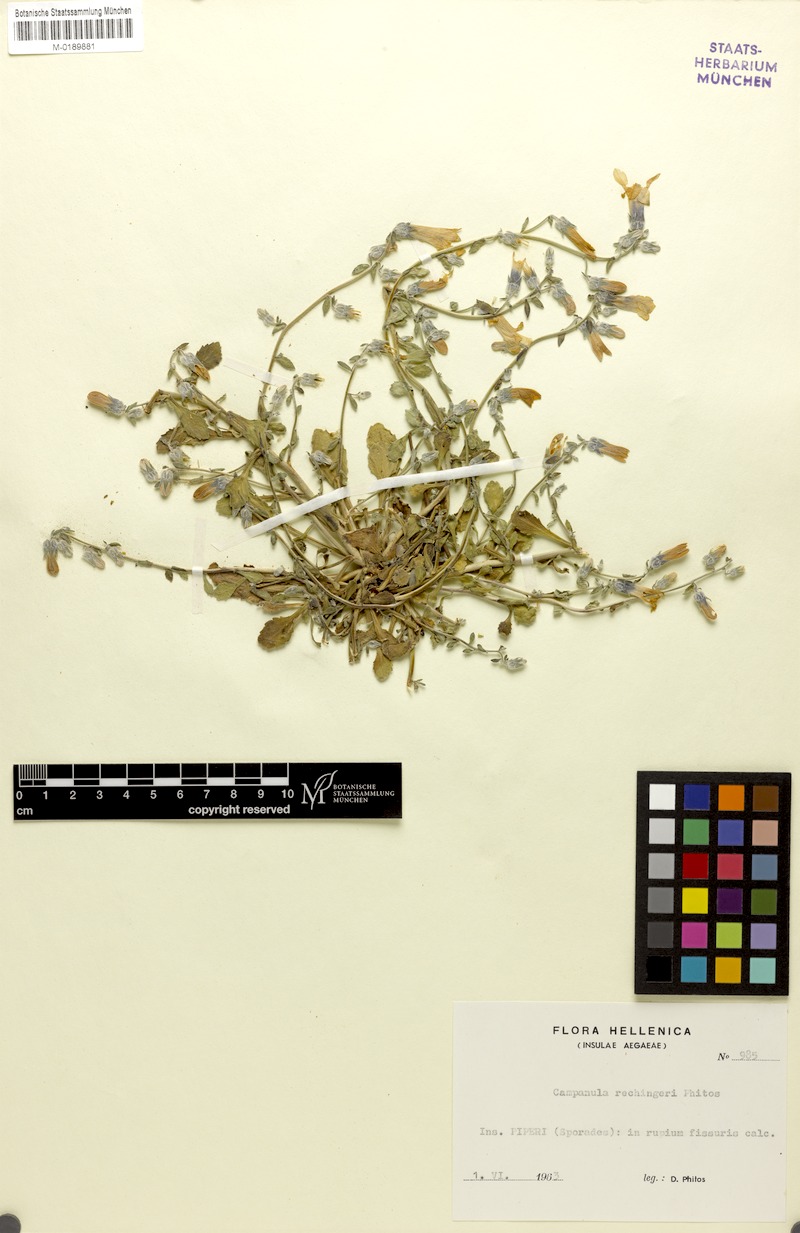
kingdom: Plantae
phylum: Tracheophyta
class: Magnoliopsida
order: Asterales
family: Campanulaceae
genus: Campanula
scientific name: Campanula rechingeri
